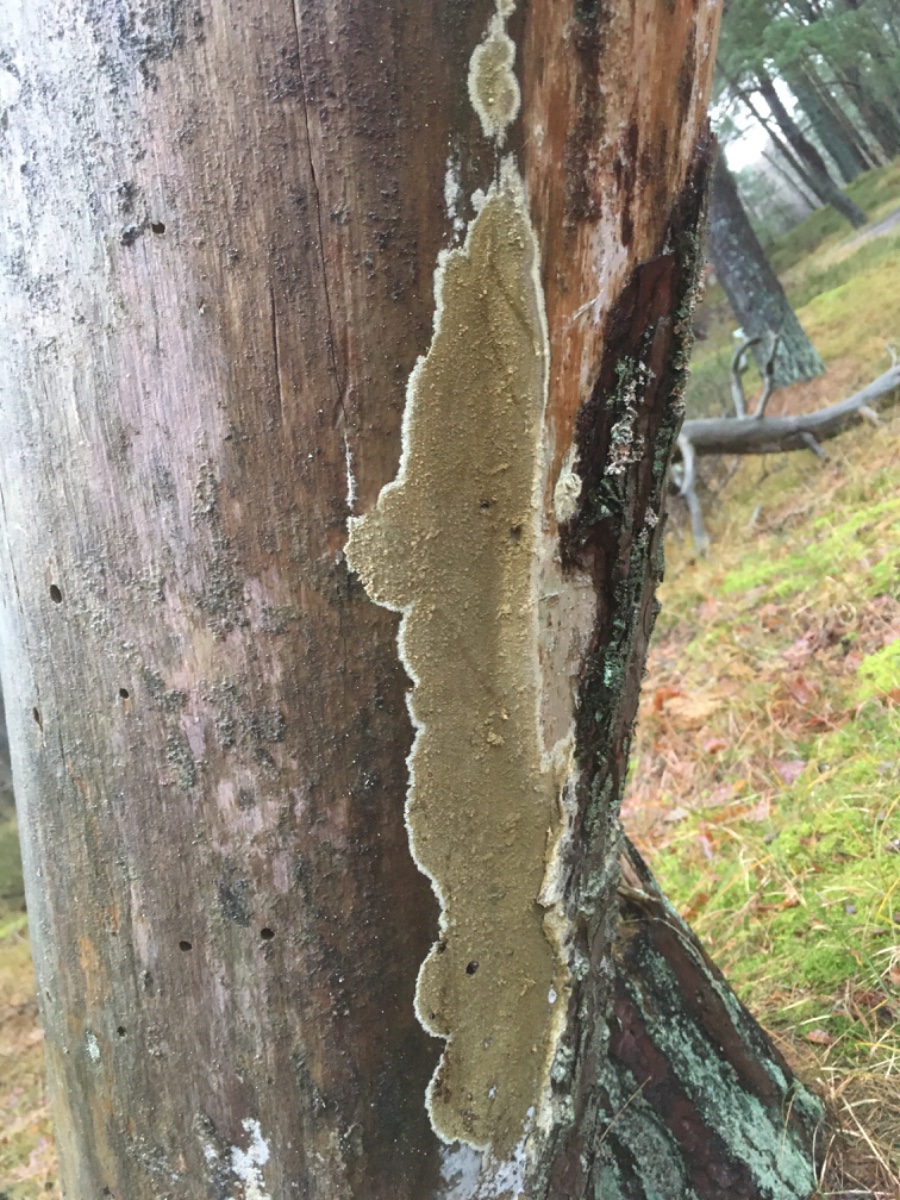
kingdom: Fungi
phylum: Basidiomycota
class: Agaricomycetes
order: Boletales
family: Coniophoraceae
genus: Coniophora
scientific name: Coniophora
